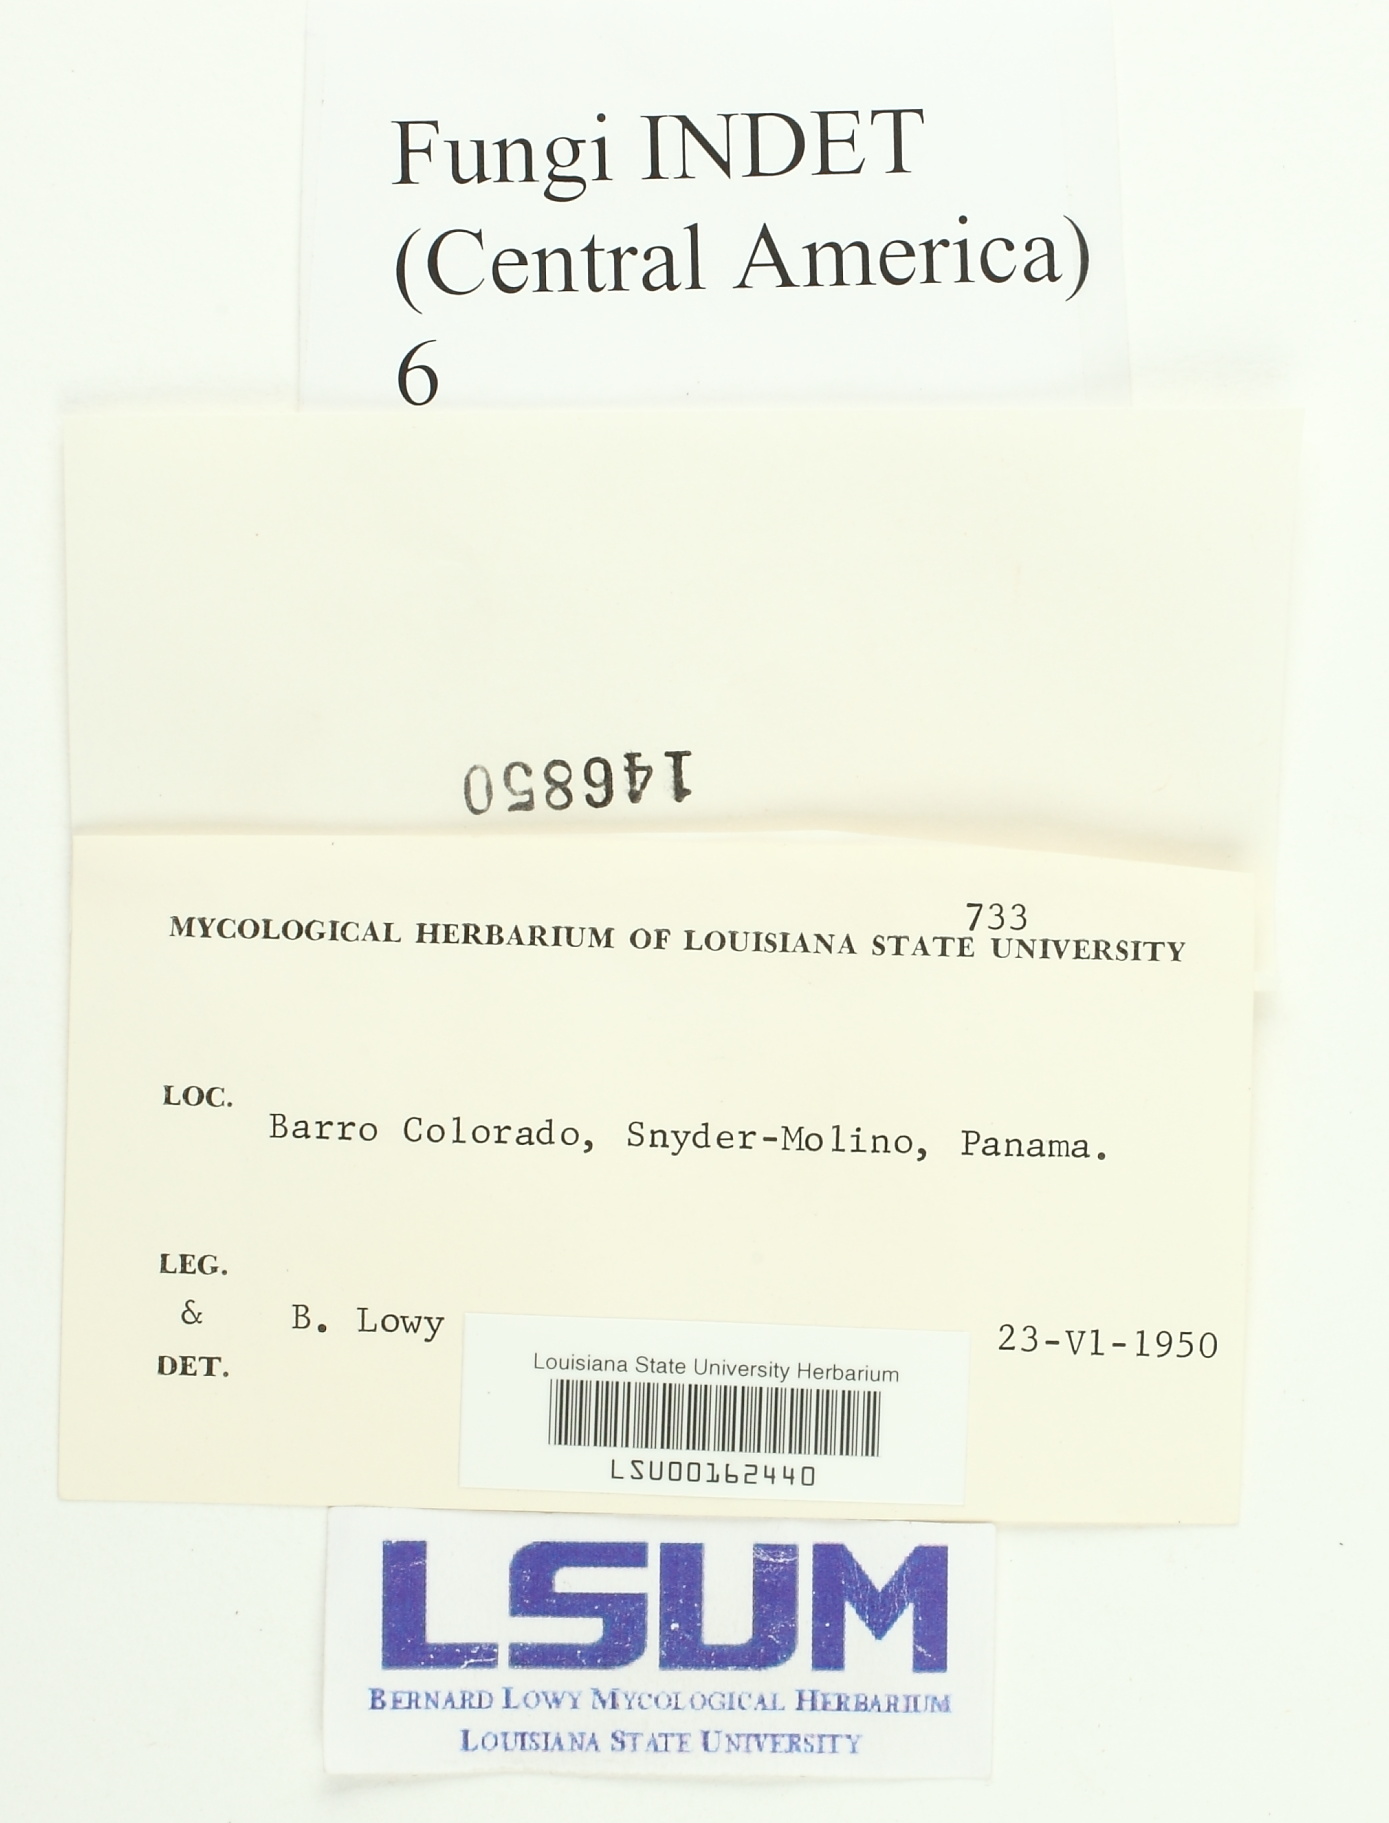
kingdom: Fungi
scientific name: Fungi
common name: Fungi
